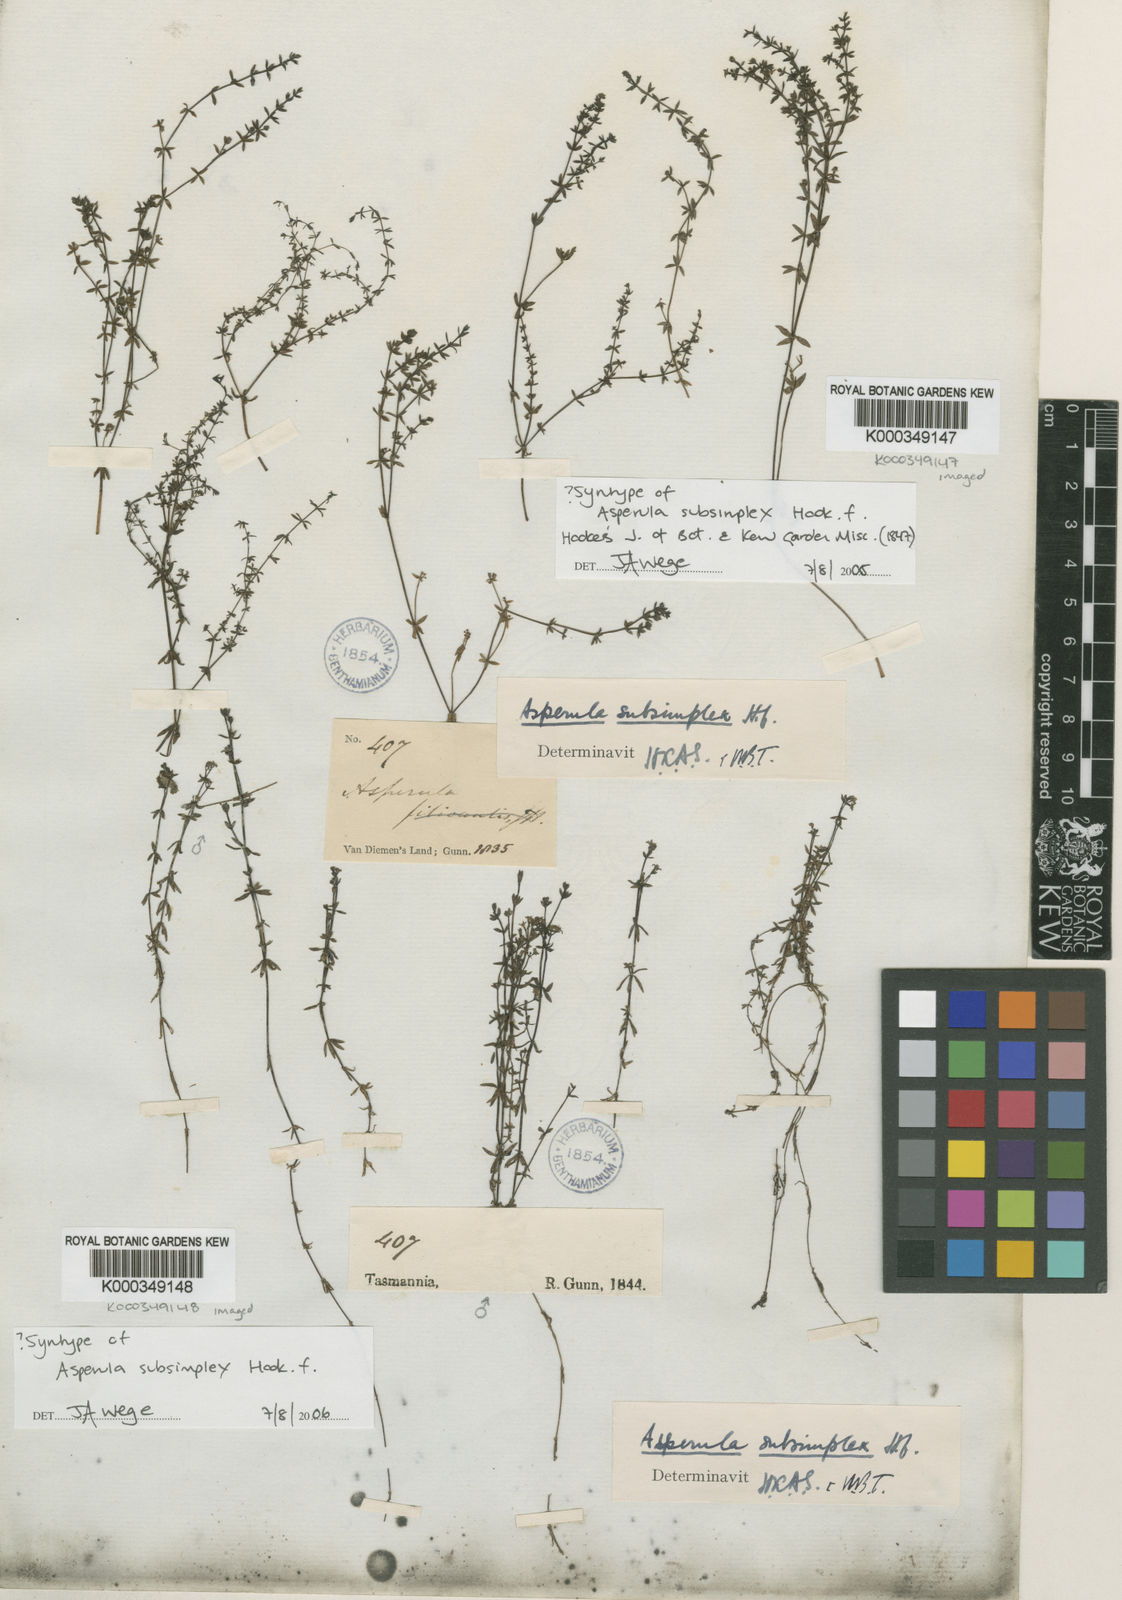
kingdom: Plantae
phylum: Tracheophyta
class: Magnoliopsida
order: Gentianales
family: Rubiaceae
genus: Asperula
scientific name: Asperula subsimplex
